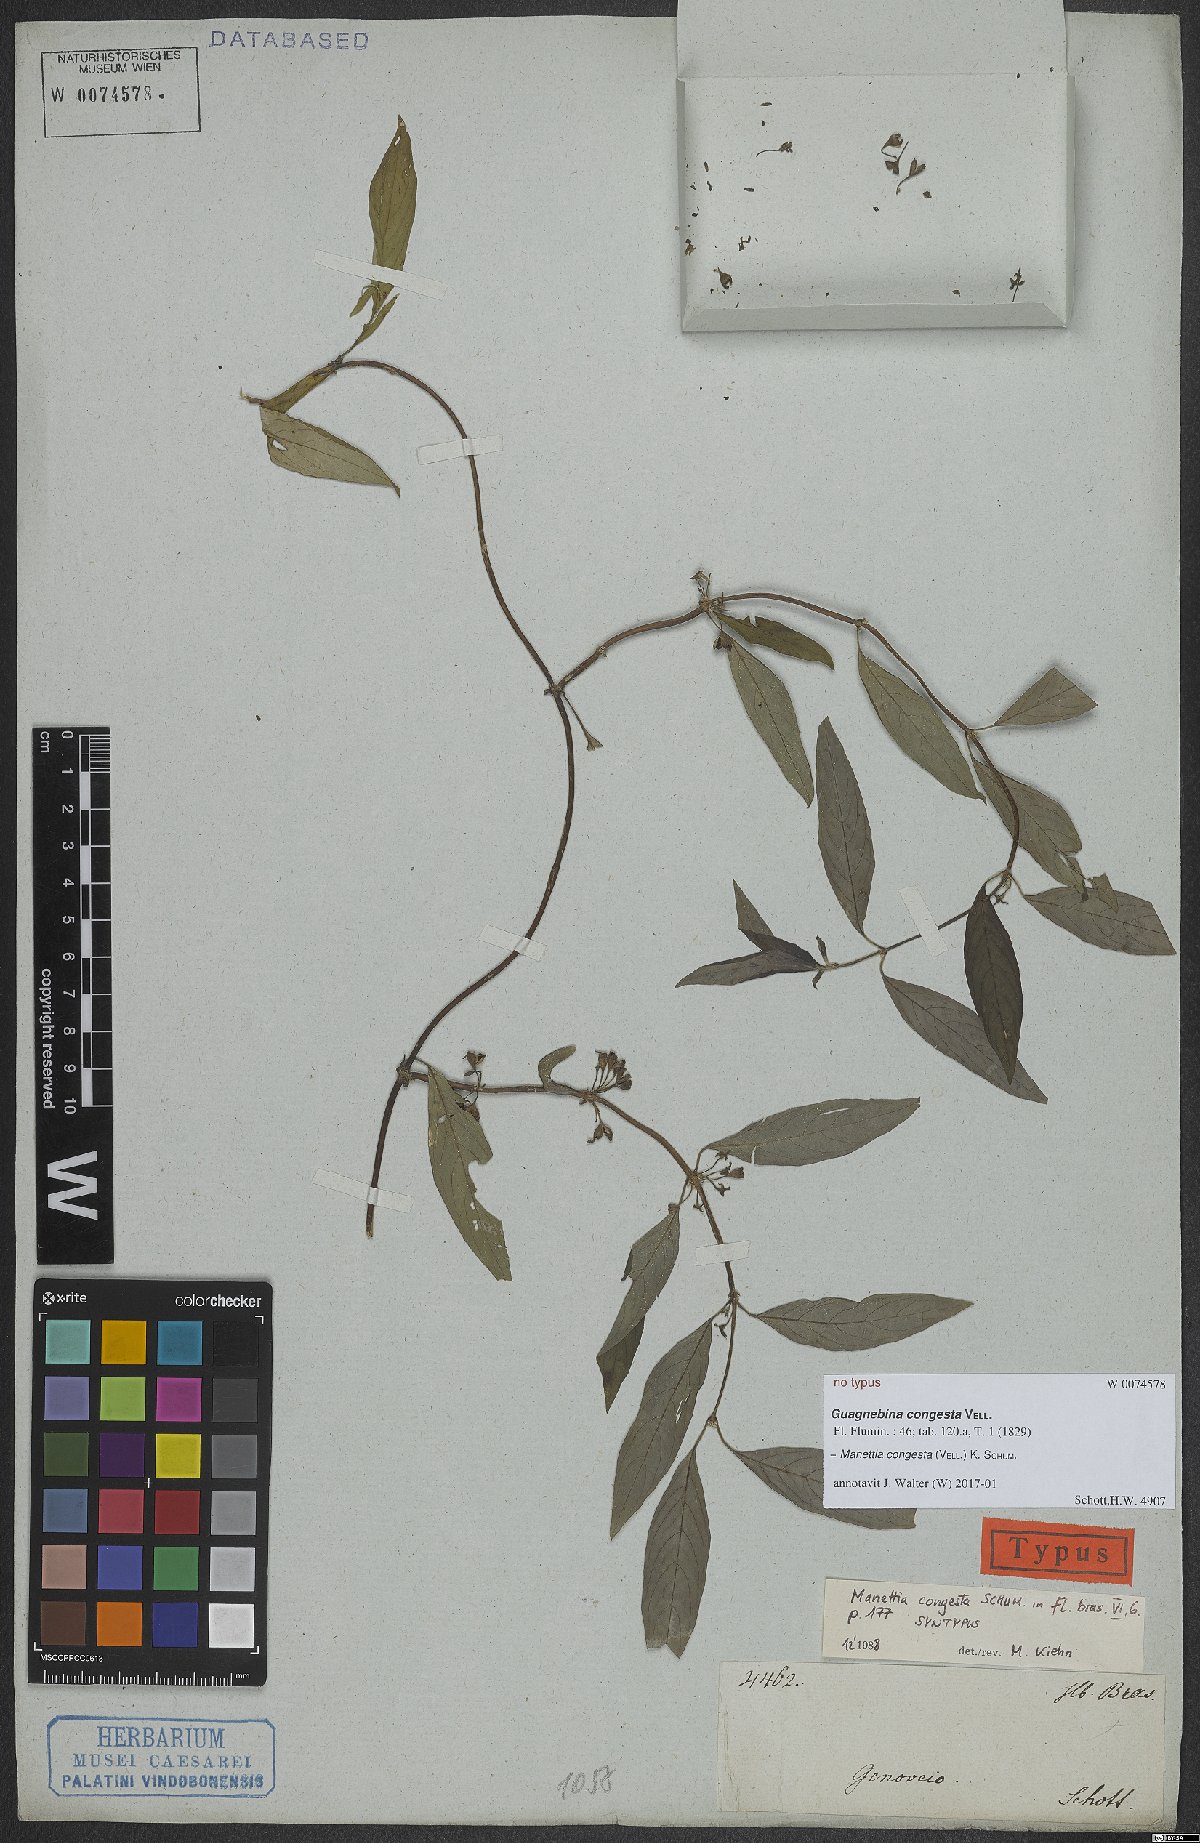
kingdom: Plantae
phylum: Tracheophyta
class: Magnoliopsida
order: Gentianales
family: Rubiaceae
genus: Manettia
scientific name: Manettia congesta
